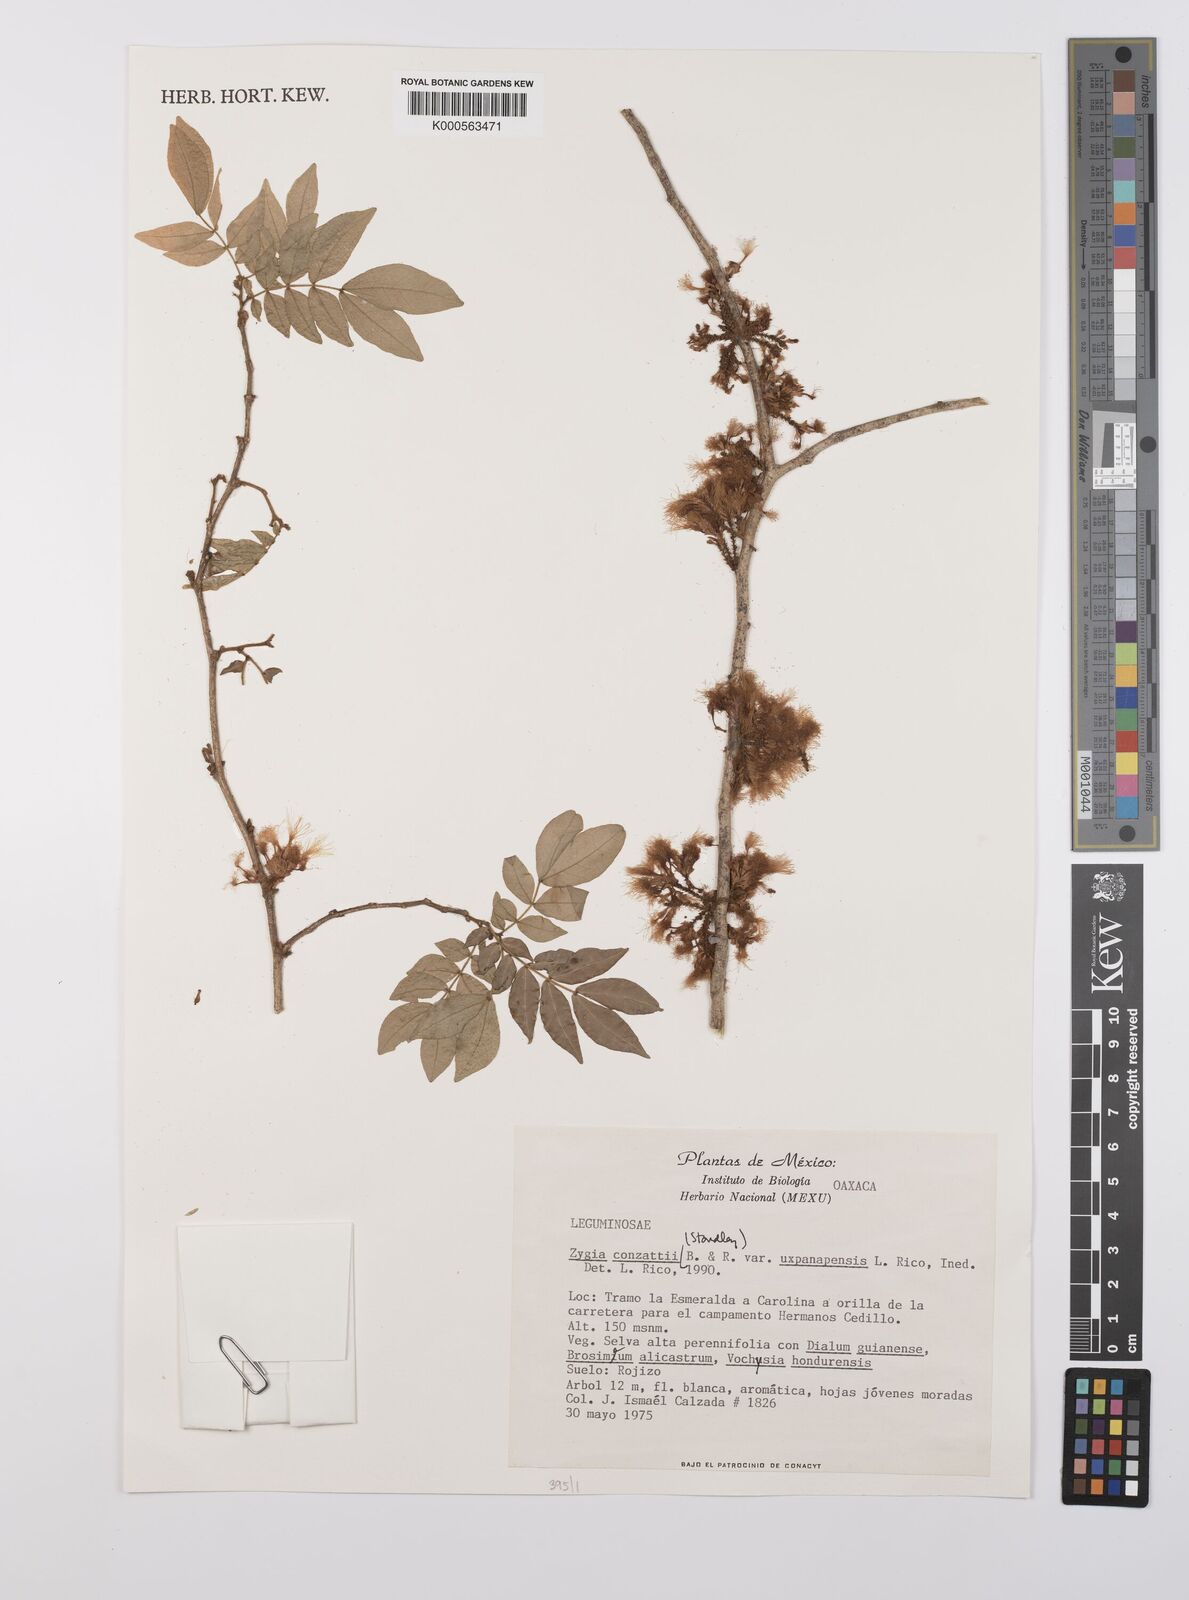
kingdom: Plantae
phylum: Tracheophyta
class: Magnoliopsida
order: Fabales
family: Fabaceae
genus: Zygia
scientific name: Zygia conzattii
